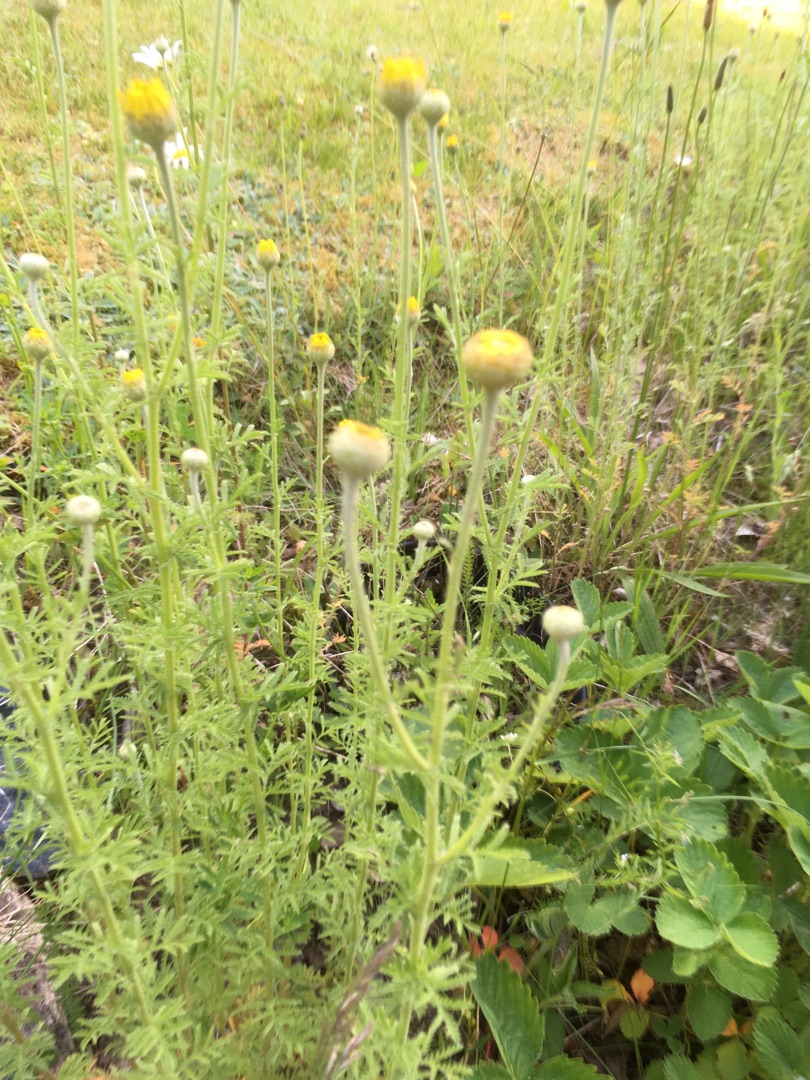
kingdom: Plantae
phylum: Tracheophyta
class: Magnoliopsida
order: Asterales
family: Asteraceae
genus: Cota
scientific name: Cota tinctoria
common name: Farve-gåseurt
